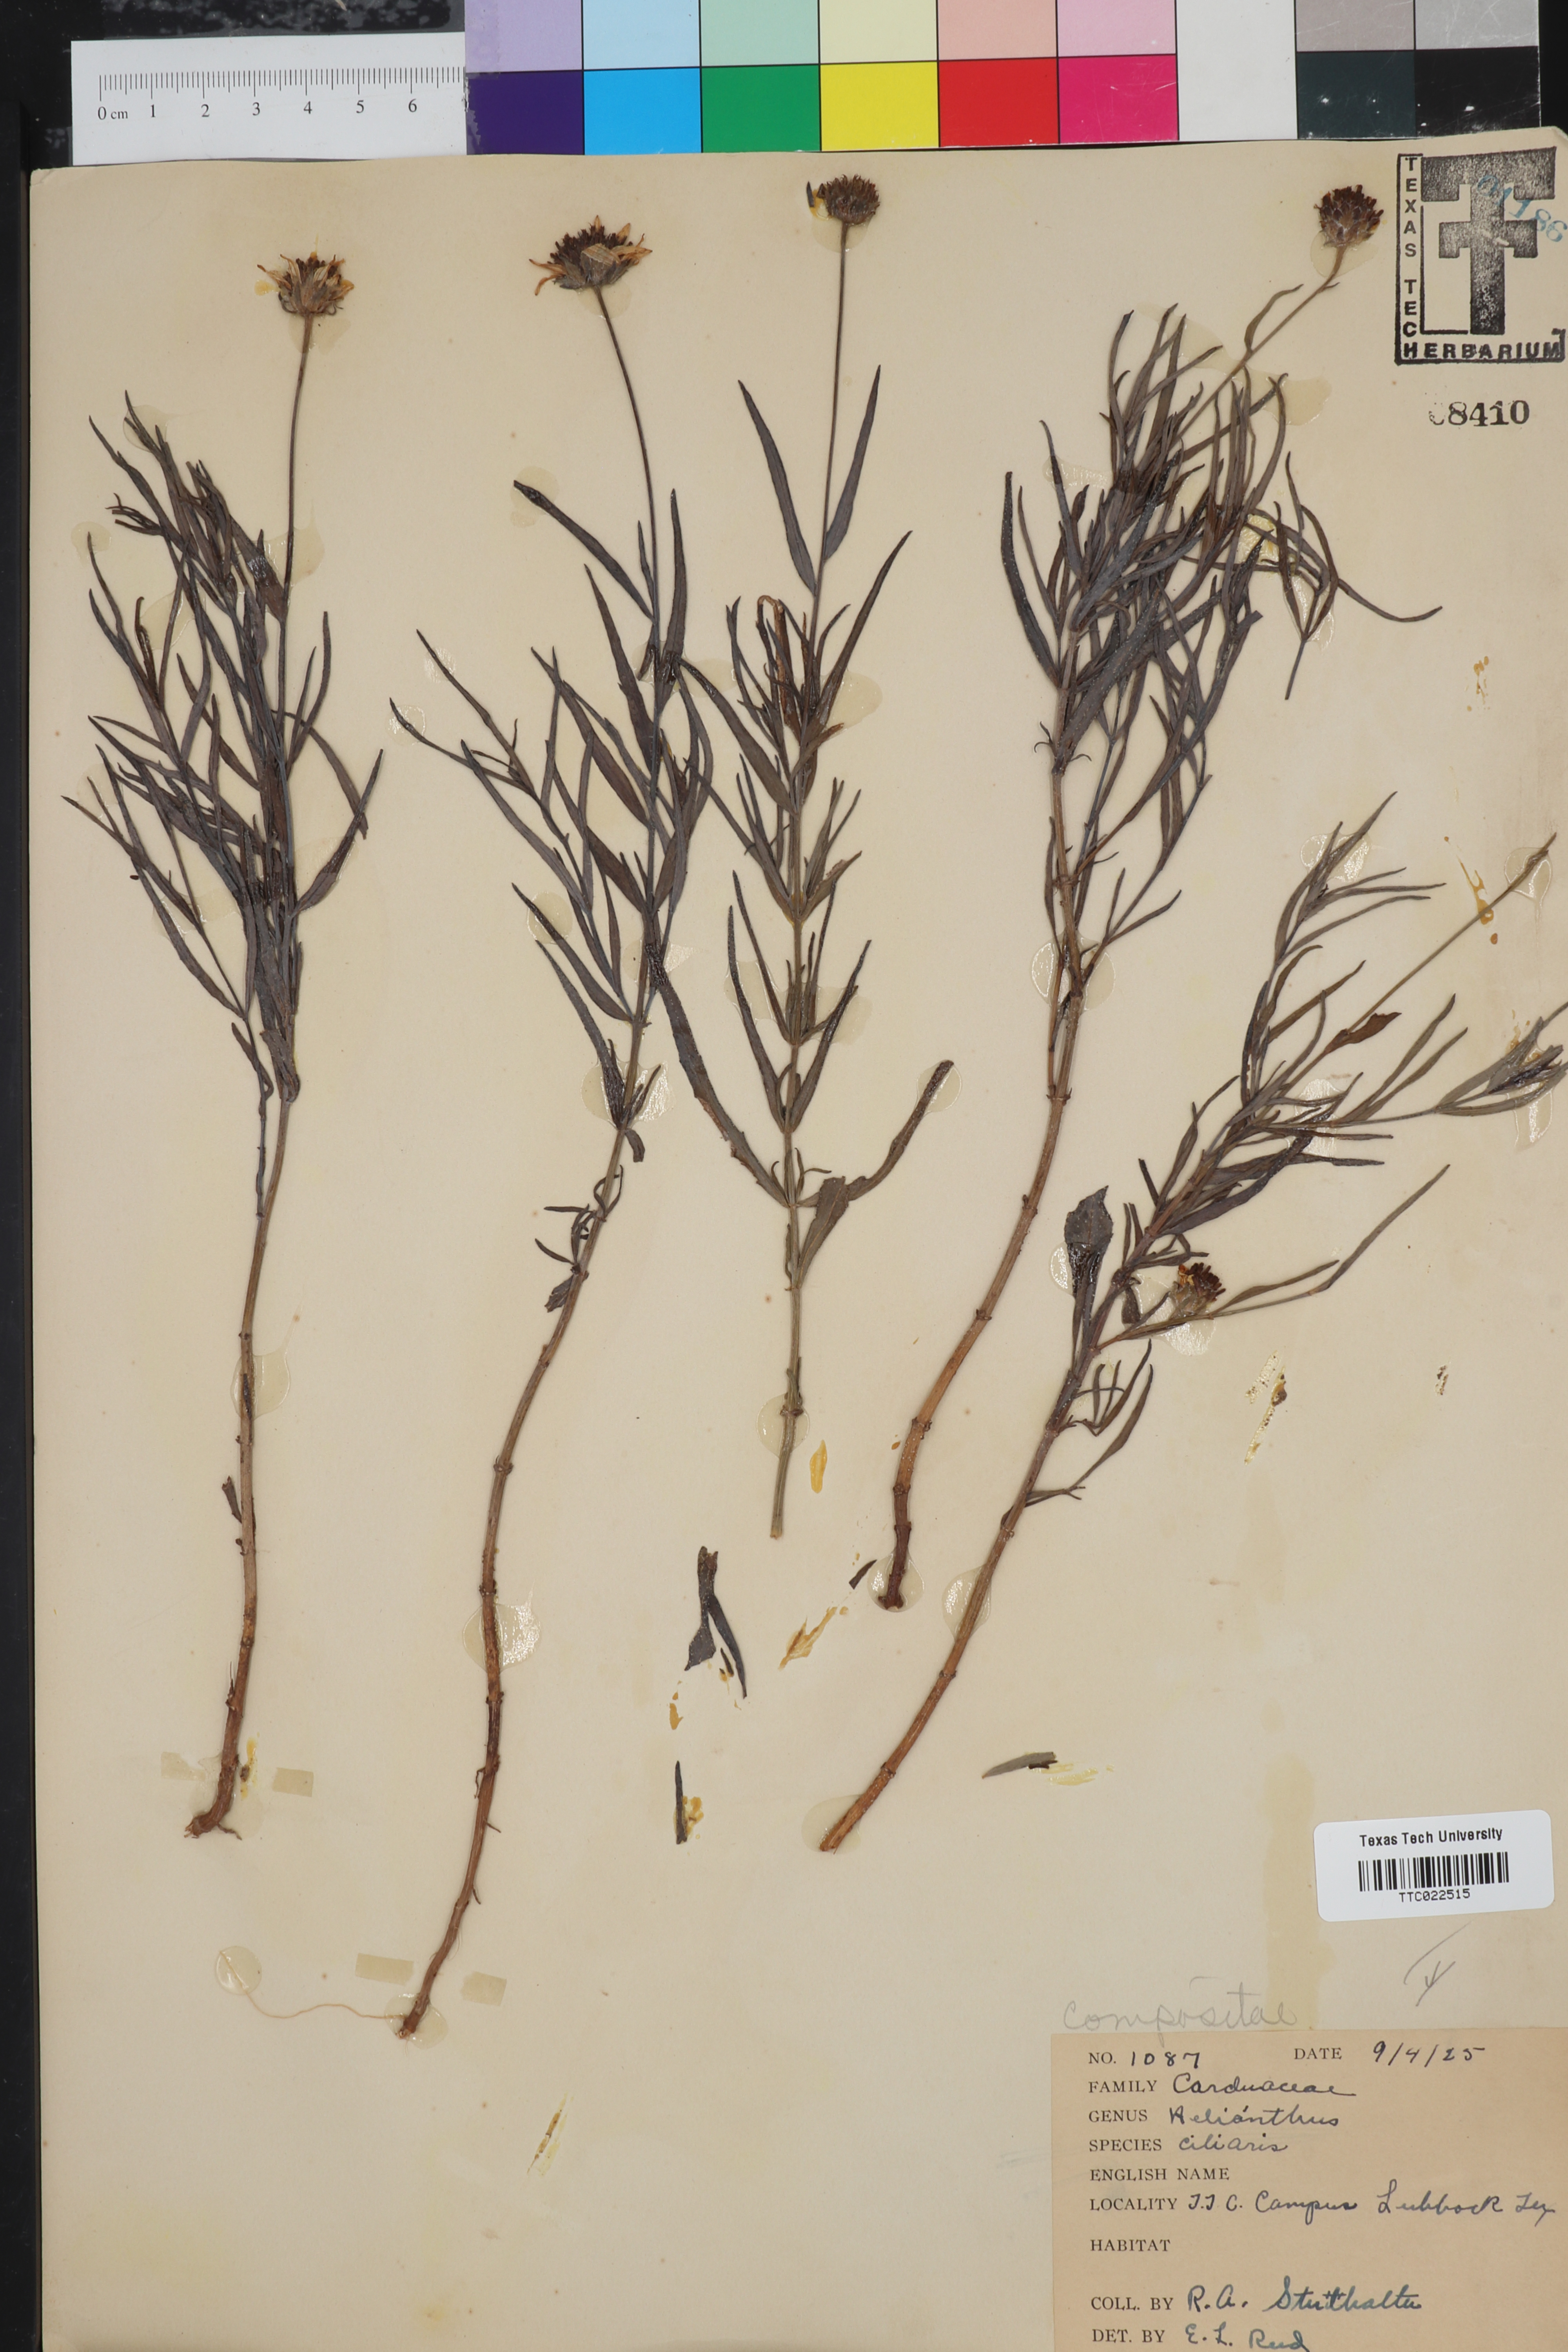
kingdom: Plantae
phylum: Tracheophyta
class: Magnoliopsida
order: Asterales
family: Asteraceae
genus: Helianthus
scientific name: Helianthus ciliaris
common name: Texas blueweed
